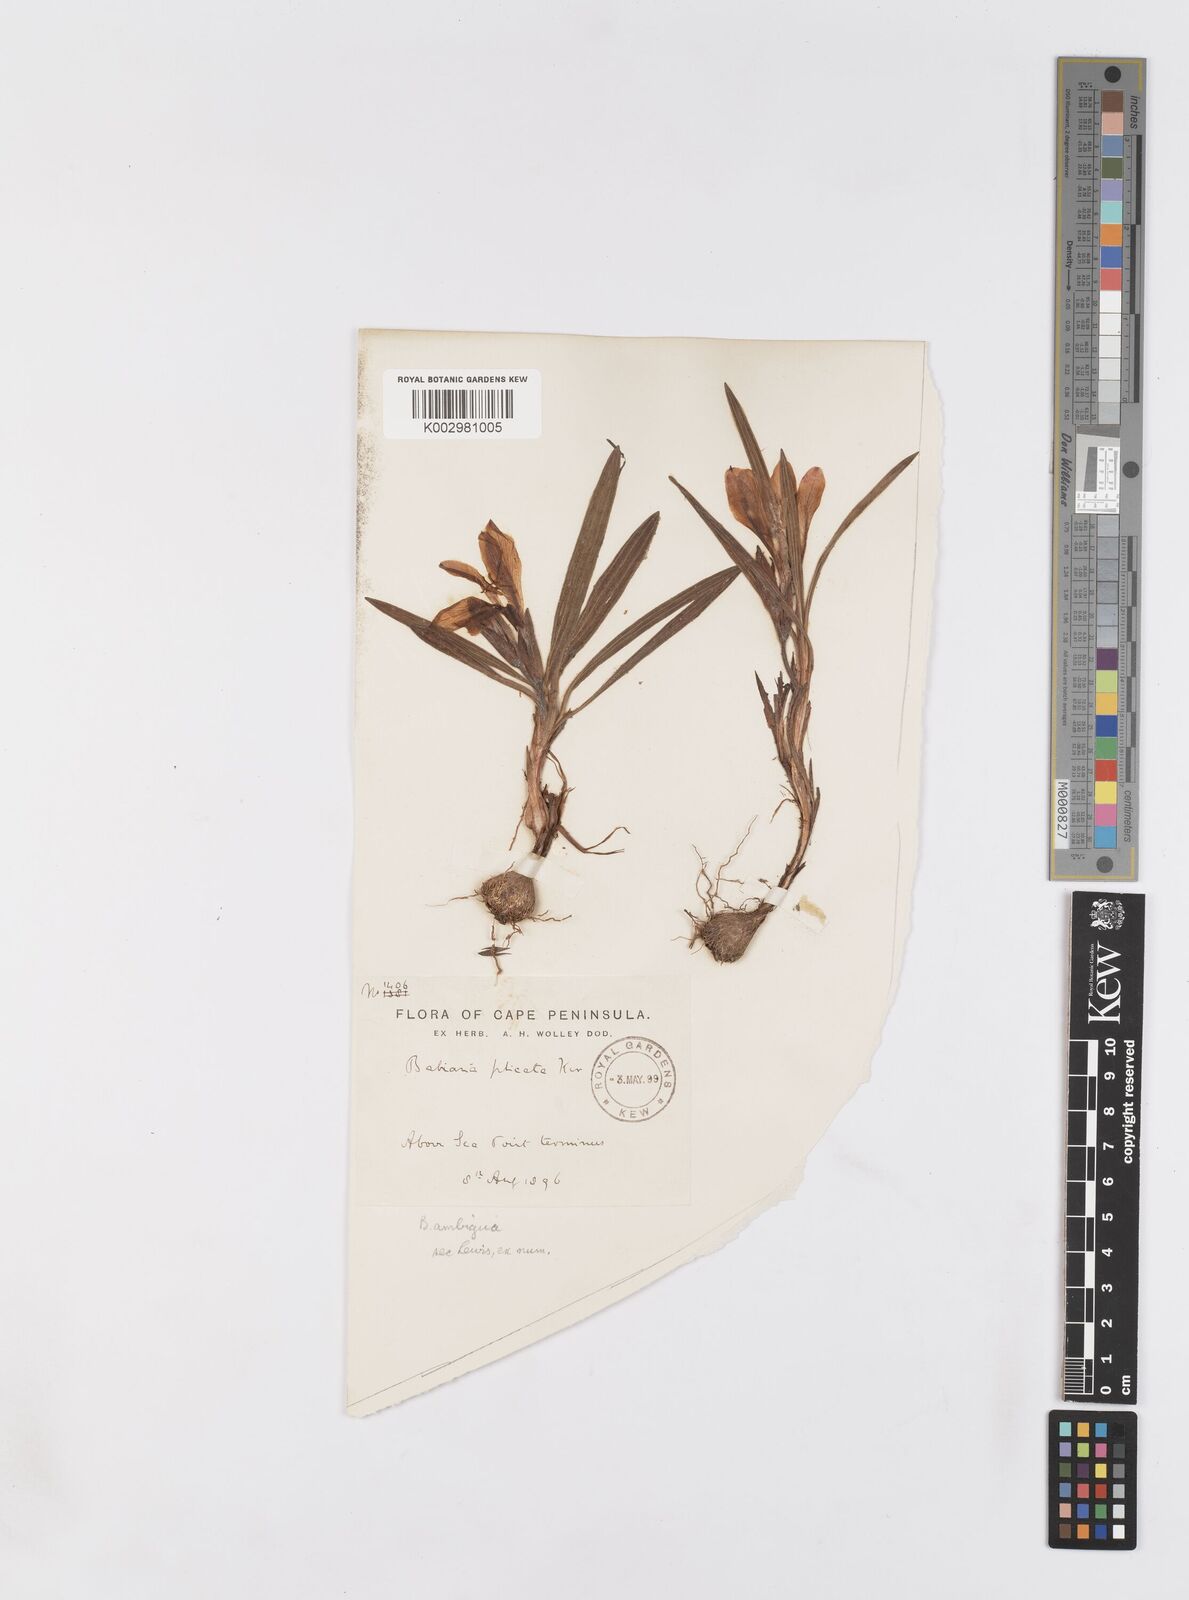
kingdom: Plantae
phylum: Tracheophyta
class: Liliopsida
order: Asparagales
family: Iridaceae
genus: Babiana
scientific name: Babiana ambigua
